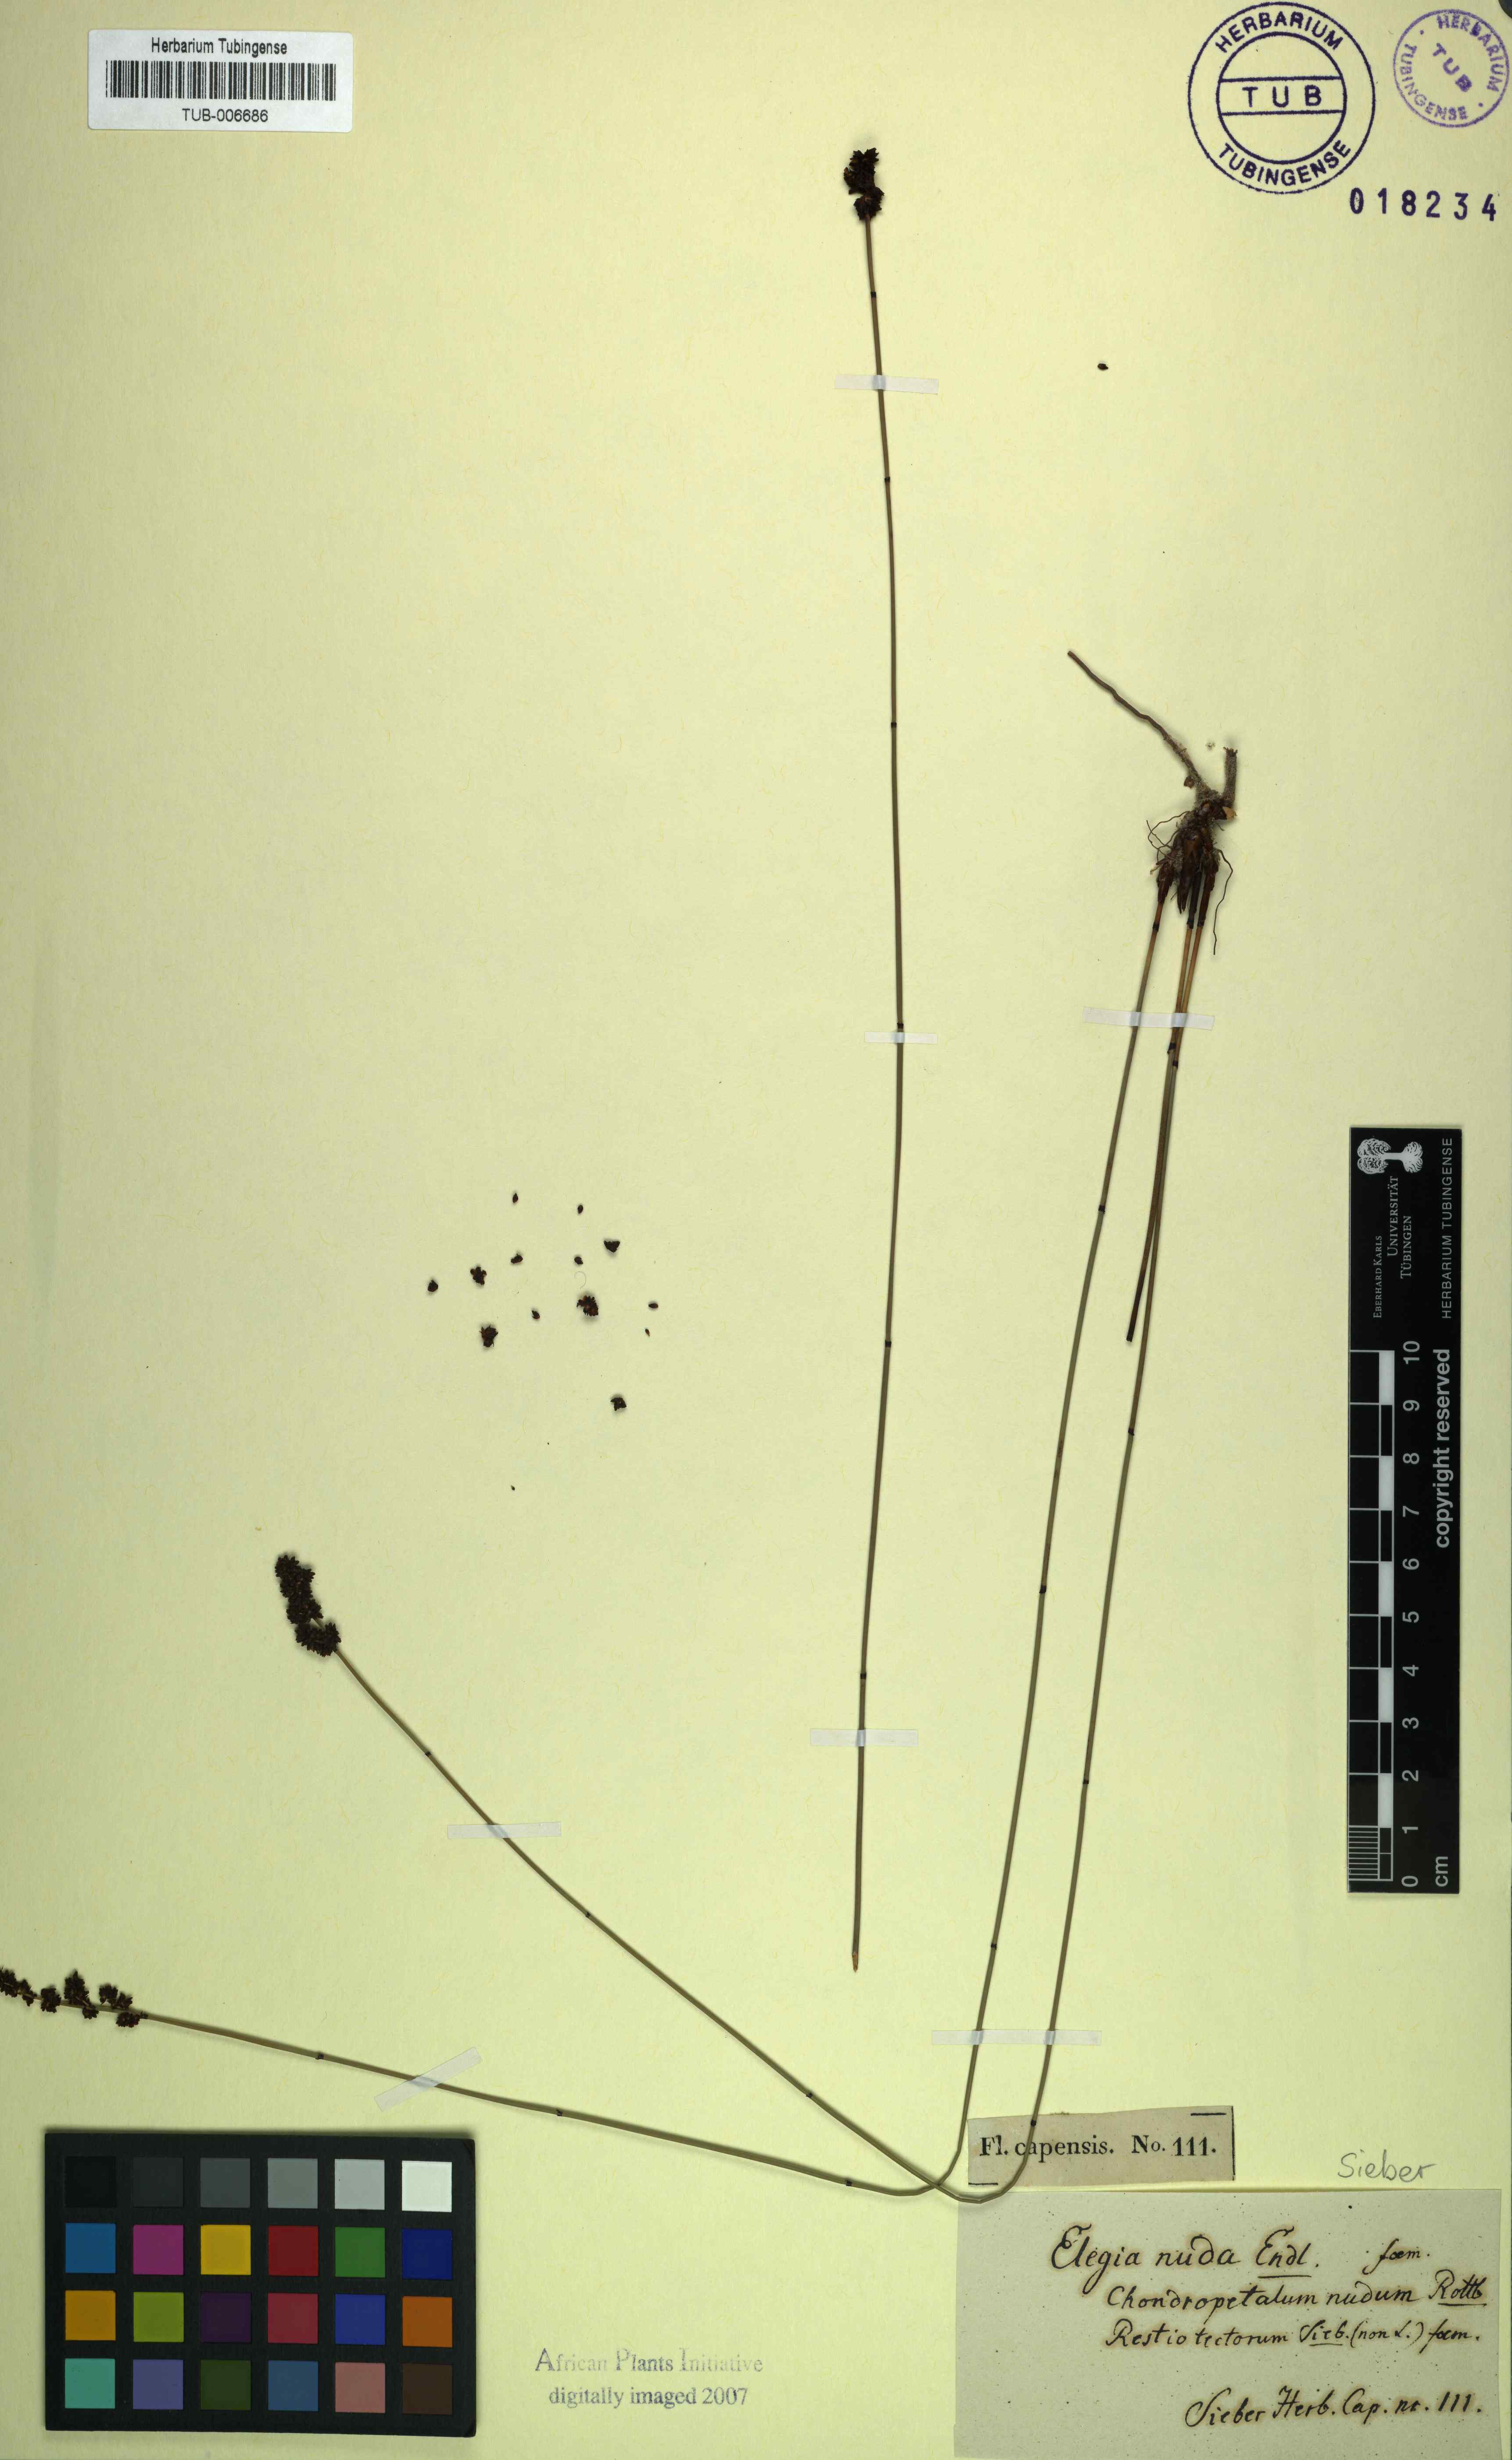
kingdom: Plantae
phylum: Tracheophyta
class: Liliopsida
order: Poales
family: Restionaceae
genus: Elegia
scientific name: Elegia nuda
